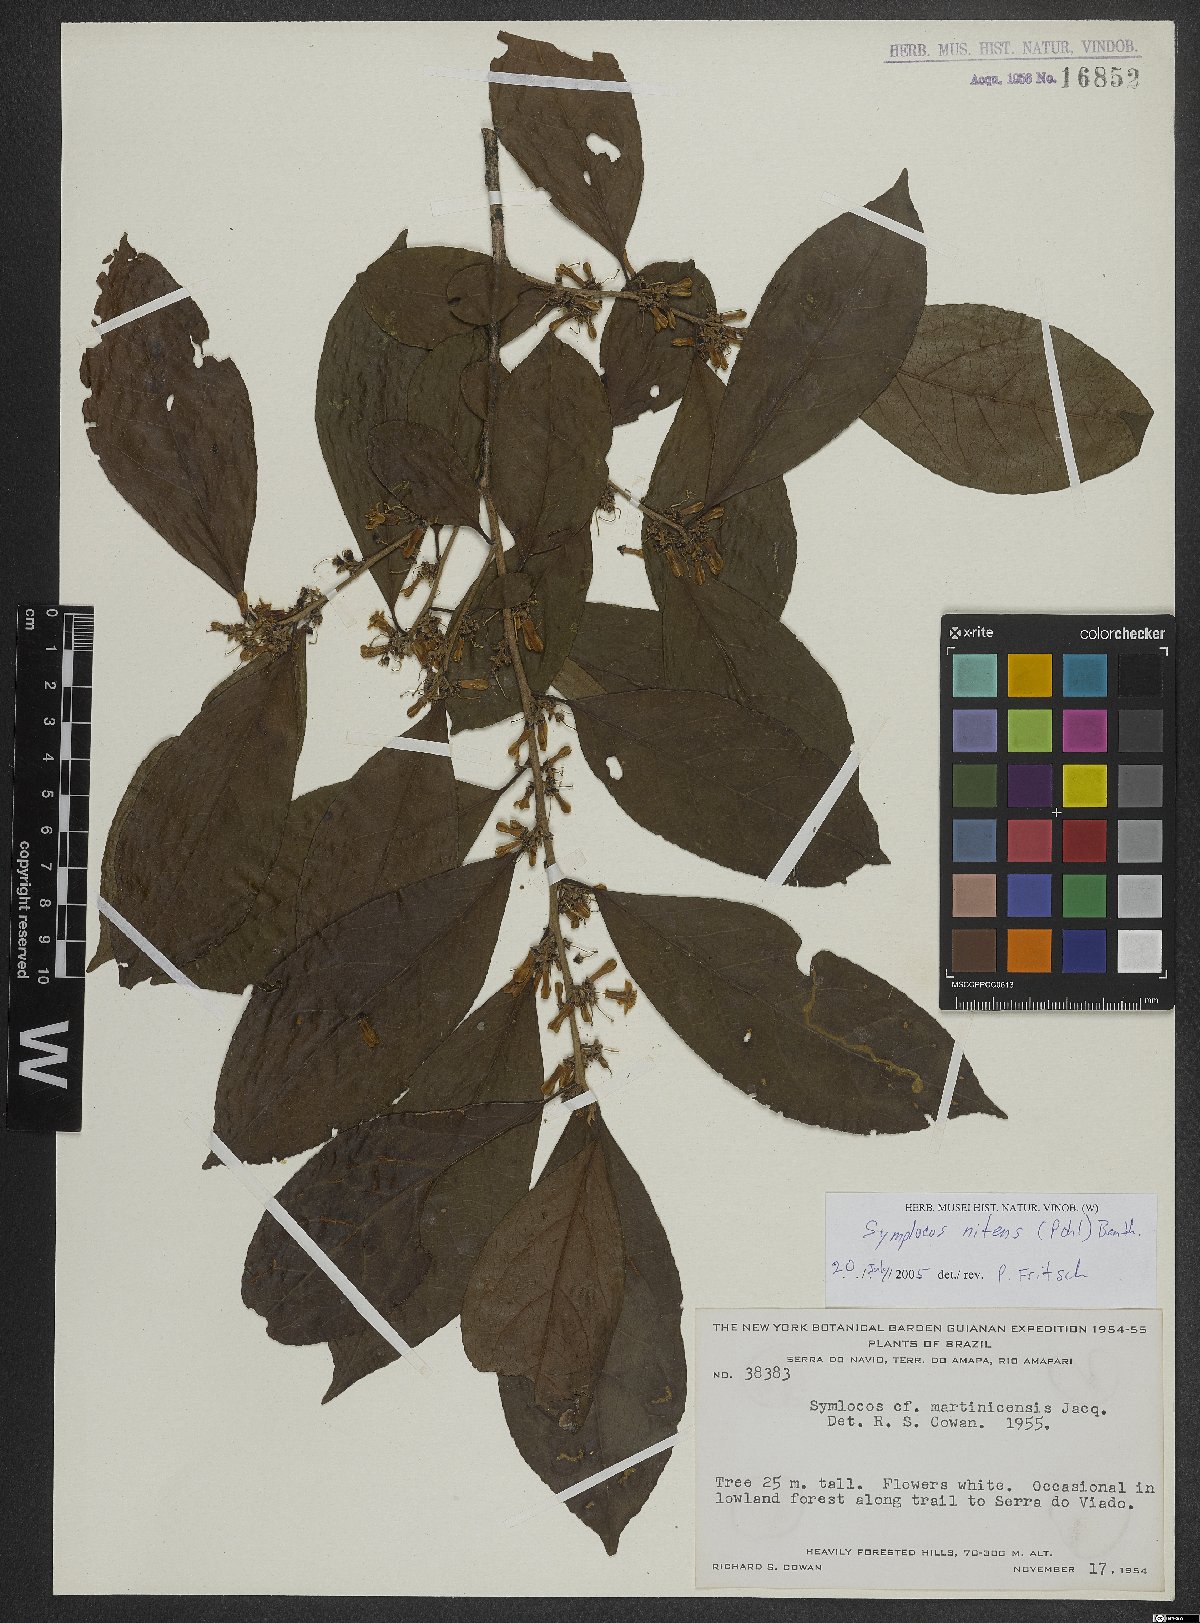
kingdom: Plantae
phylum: Tracheophyta
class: Magnoliopsida
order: Ericales
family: Symplocaceae
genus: Symplocos
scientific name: Symplocos nitens
